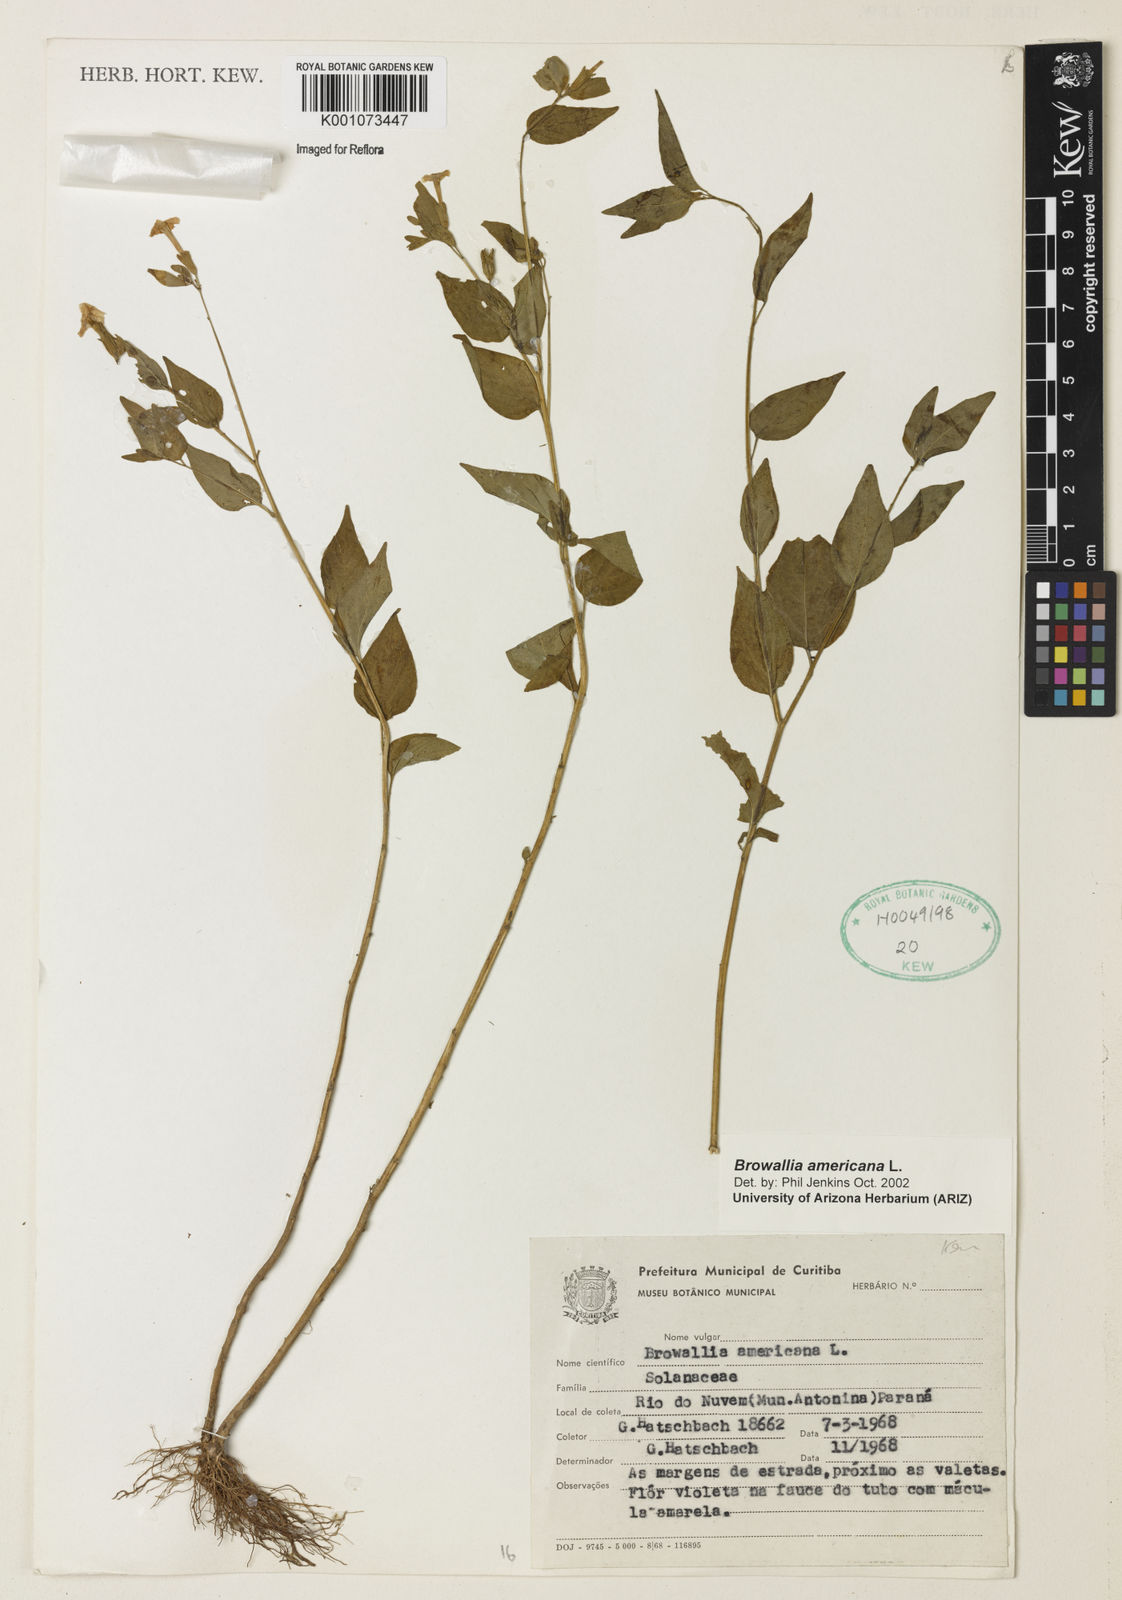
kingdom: Plantae
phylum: Tracheophyta
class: Magnoliopsida
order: Solanales
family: Solanaceae
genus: Browallia
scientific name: Browallia americana
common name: Jamaican forget-me-not
